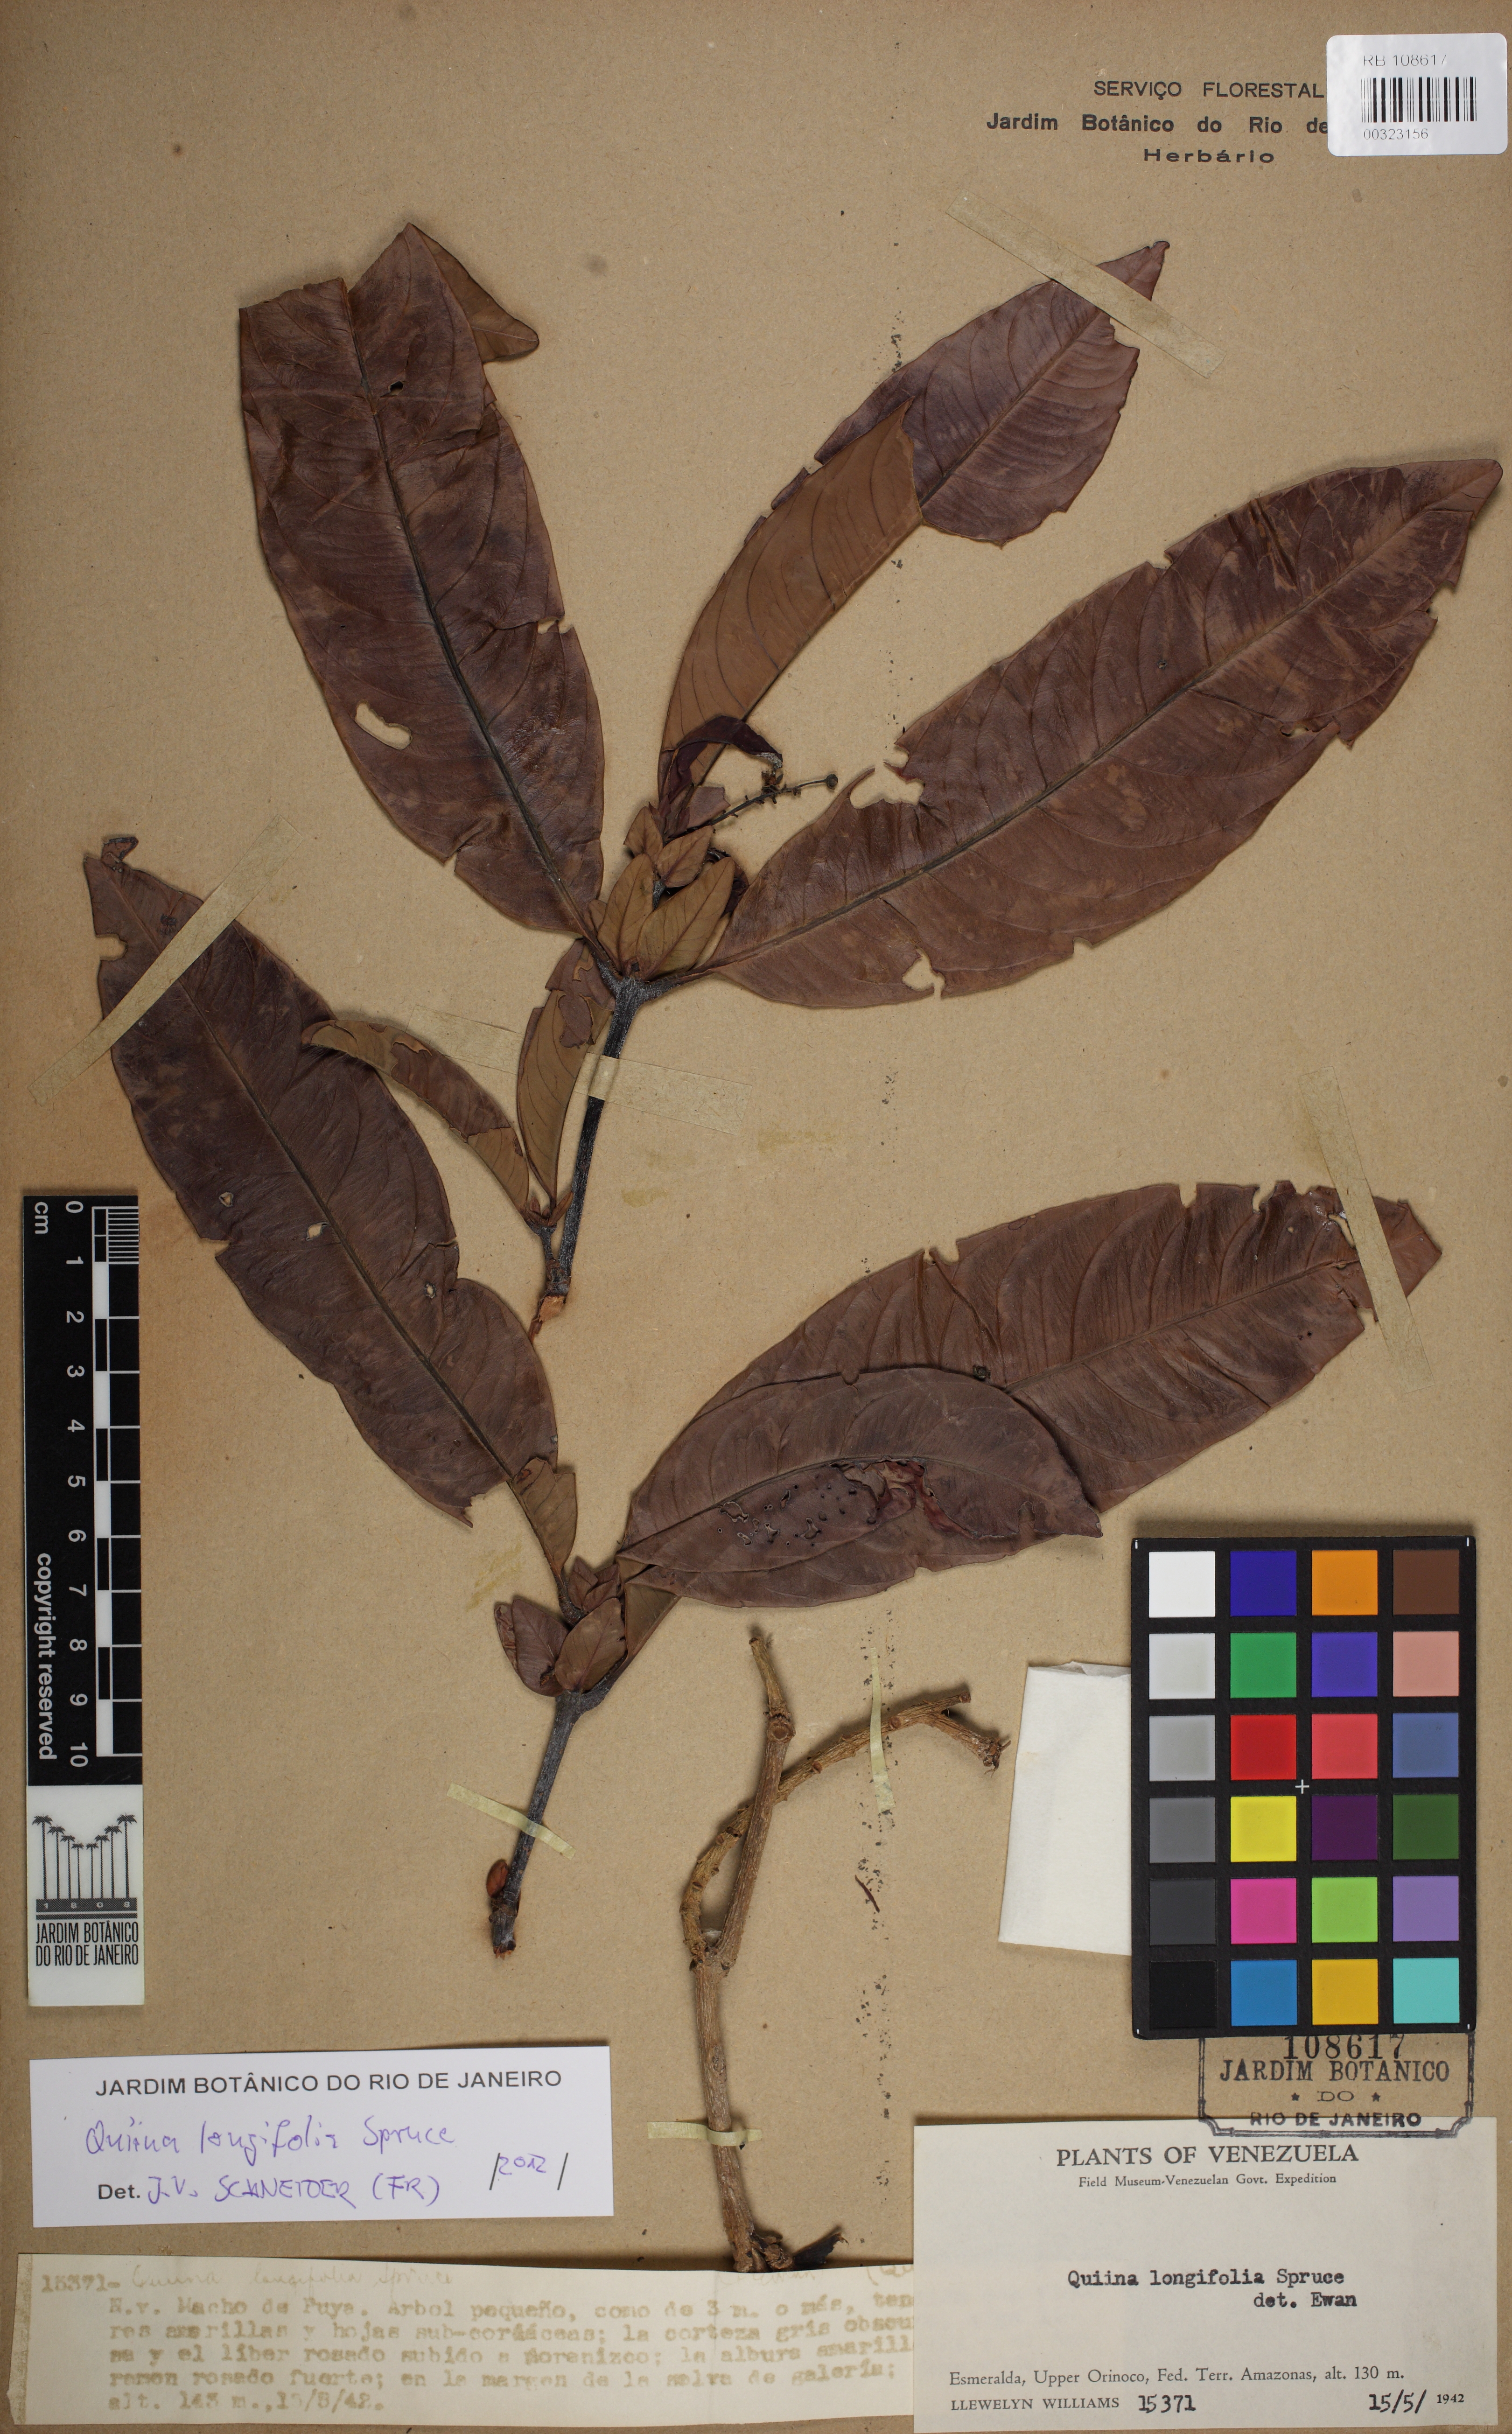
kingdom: Plantae
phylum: Tracheophyta
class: Magnoliopsida
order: Malpighiales
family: Quiinaceae
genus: Quiina
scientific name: Quiina longifolia
